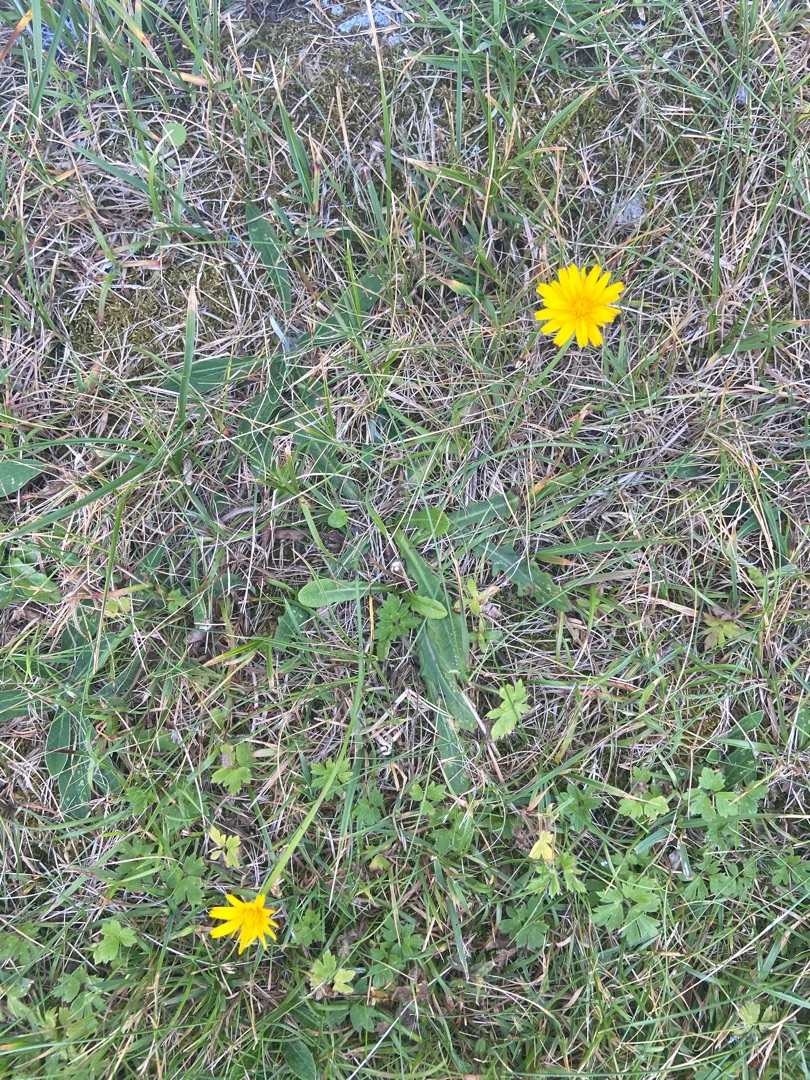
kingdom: Plantae
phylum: Tracheophyta
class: Magnoliopsida
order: Asterales
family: Asteraceae
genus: Hypochaeris
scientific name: Hypochaeris radicata
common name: Almindelig kongepen
